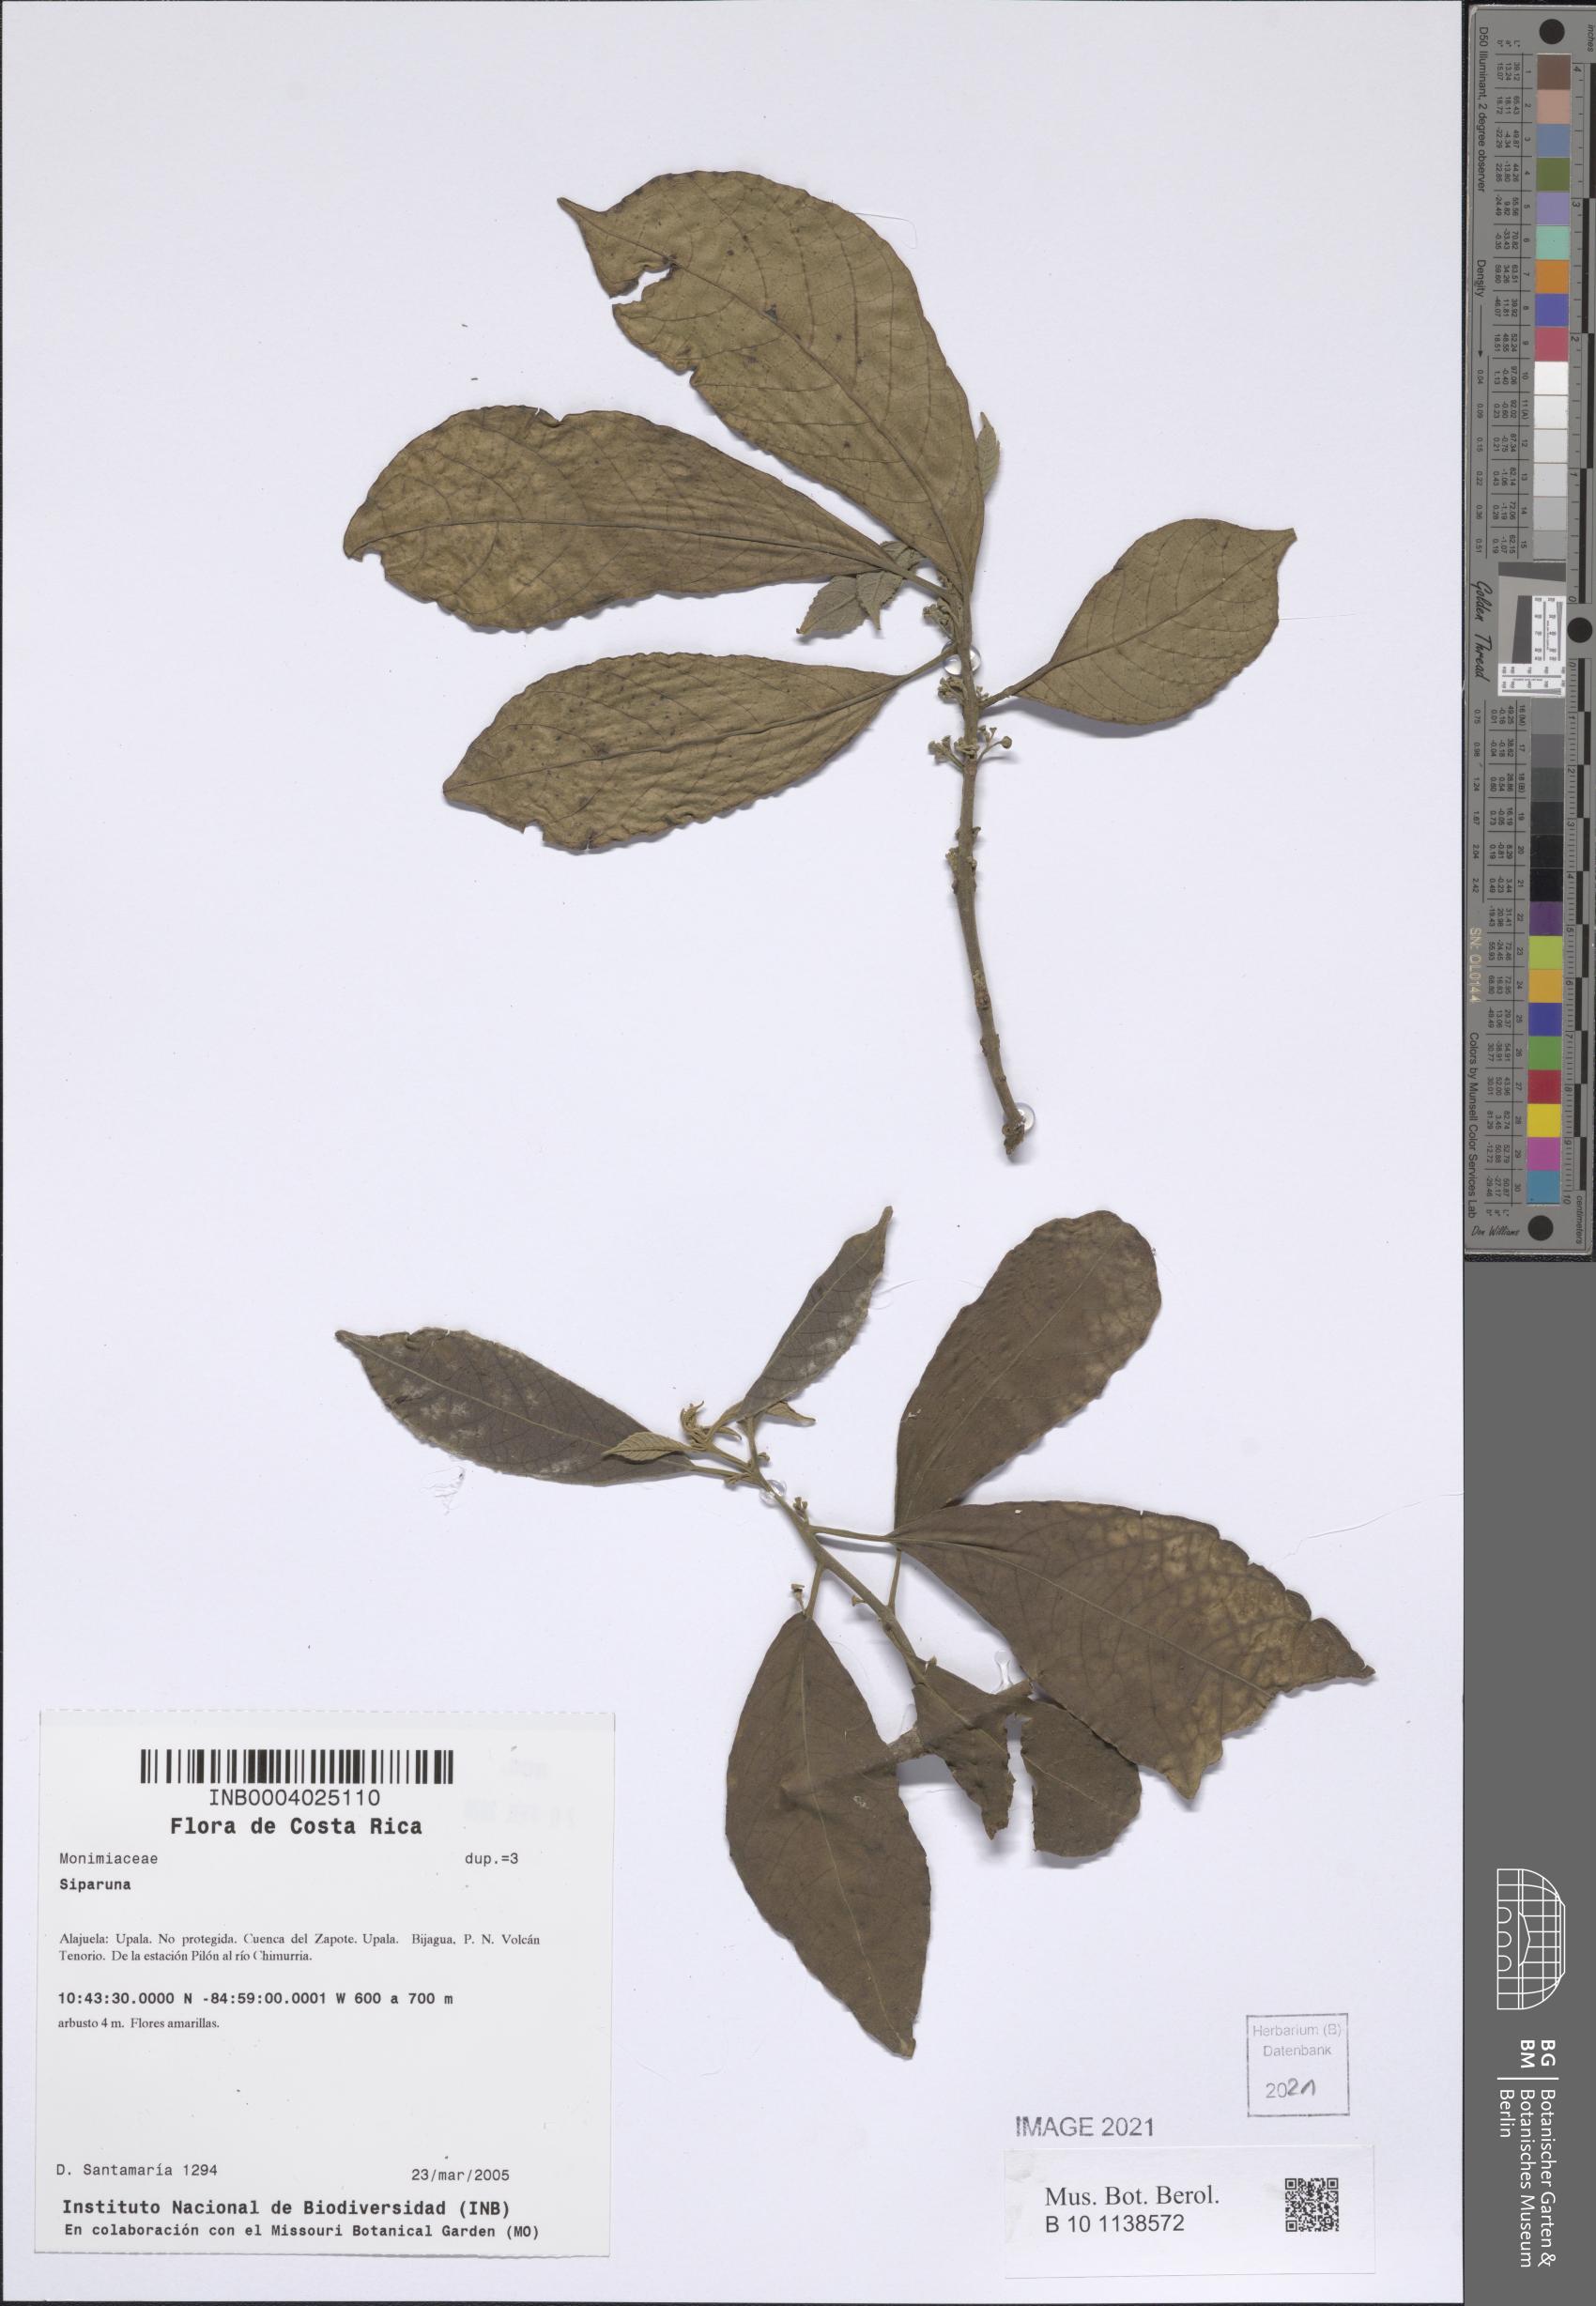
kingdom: Plantae
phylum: Tracheophyta
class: Magnoliopsida
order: Laurales
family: Siparunaceae
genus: Siparuna
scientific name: Siparuna
